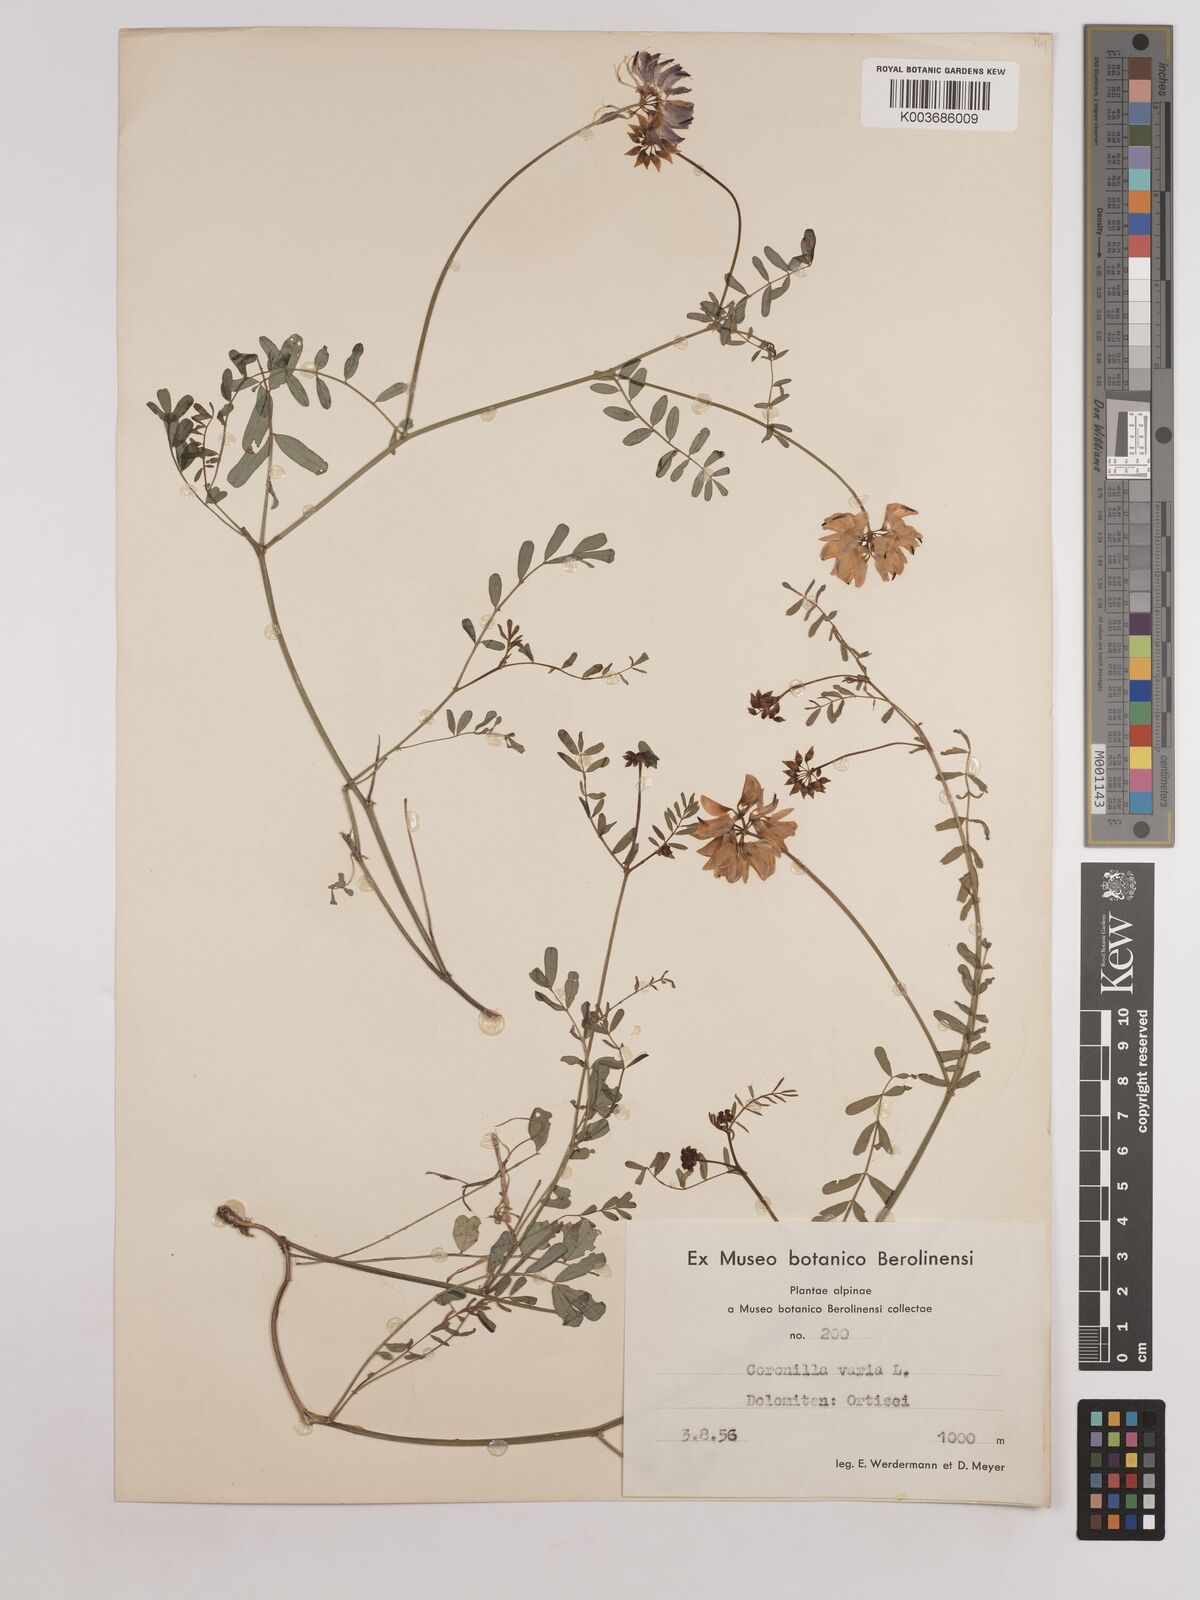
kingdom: Plantae
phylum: Tracheophyta
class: Magnoliopsida
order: Fabales
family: Fabaceae
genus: Coronilla
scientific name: Coronilla varia
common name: Crownvetch
